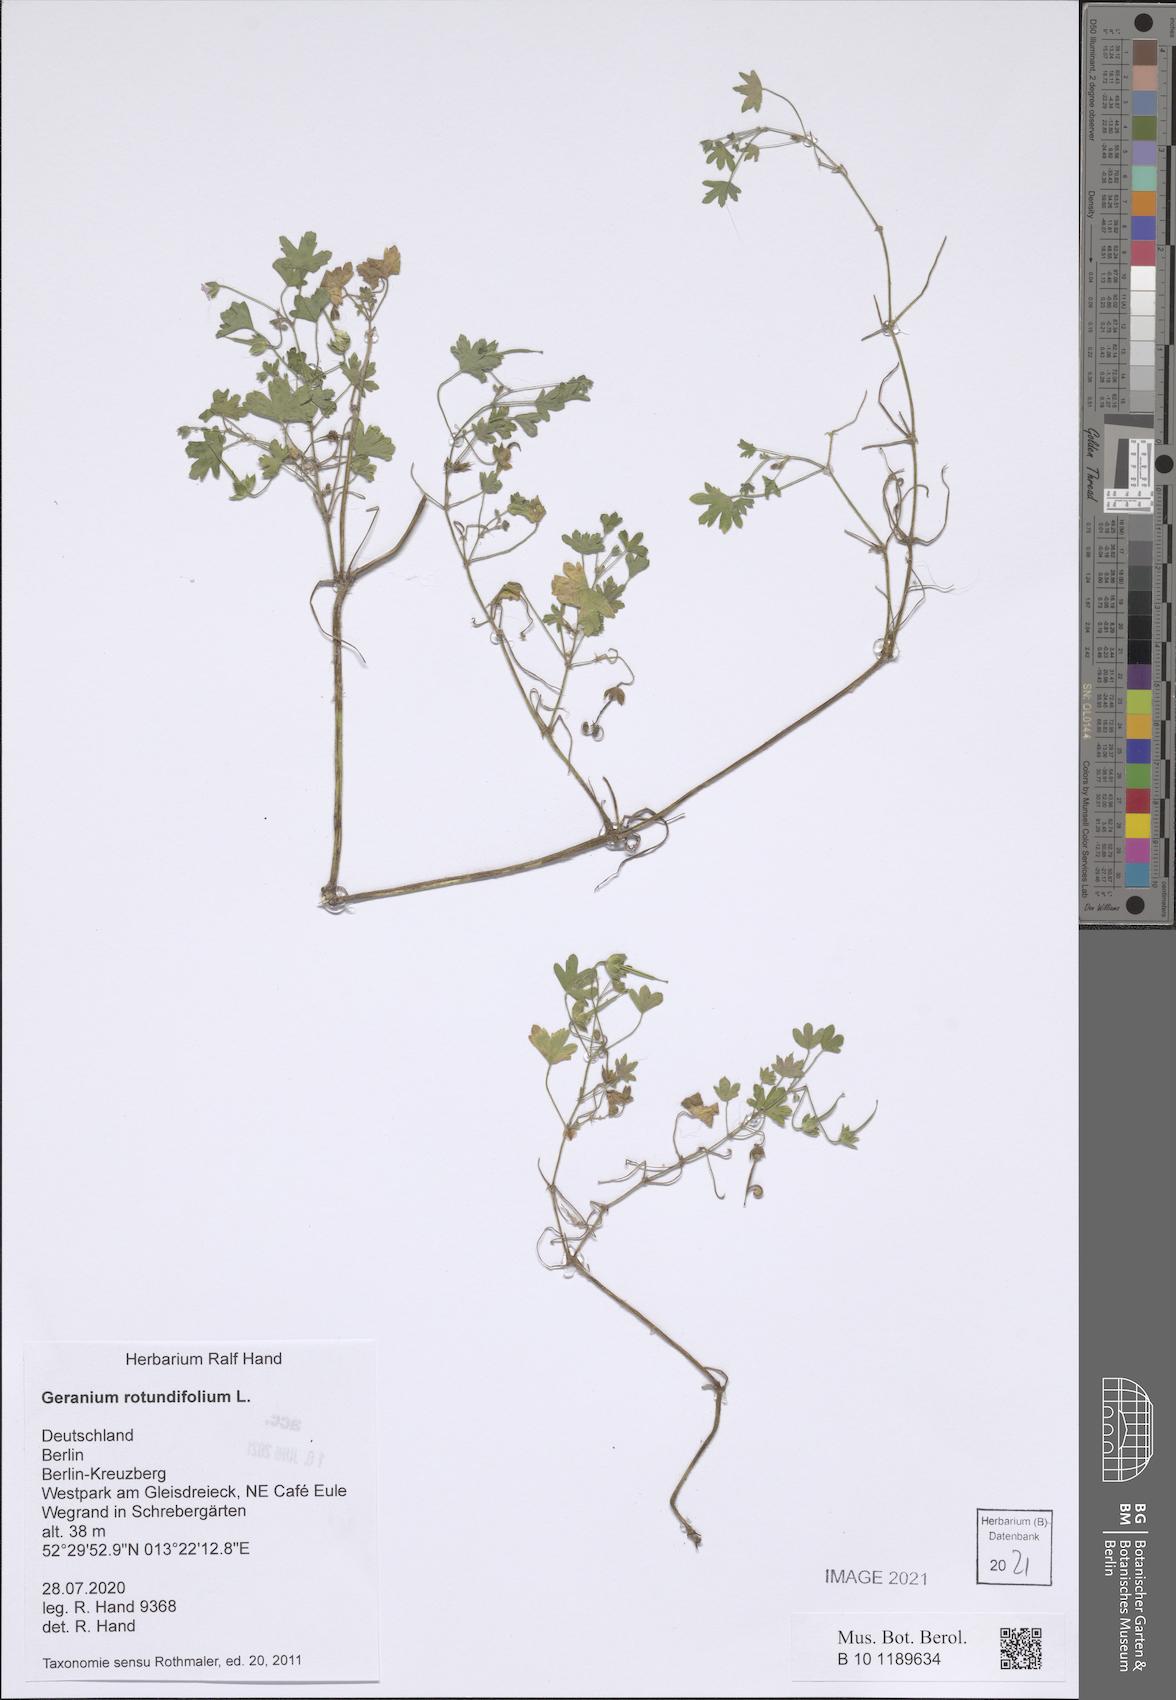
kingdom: Plantae
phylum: Tracheophyta
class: Magnoliopsida
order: Geraniales
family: Geraniaceae
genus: Geranium
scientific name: Geranium rotundifolium
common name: Round-leaved crane's-bill
